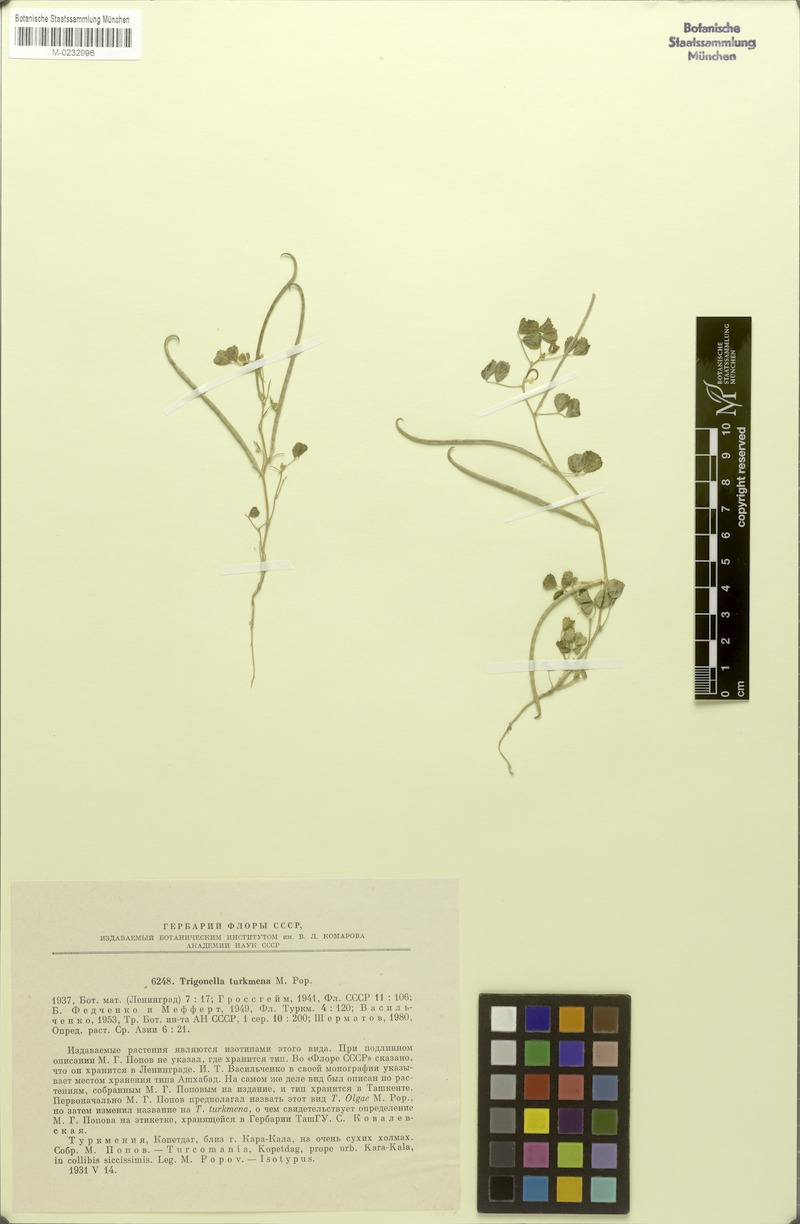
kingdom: Plantae
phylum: Tracheophyta
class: Magnoliopsida
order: Fabales
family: Fabaceae
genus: Trigonella
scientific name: Trigonella turkmena
